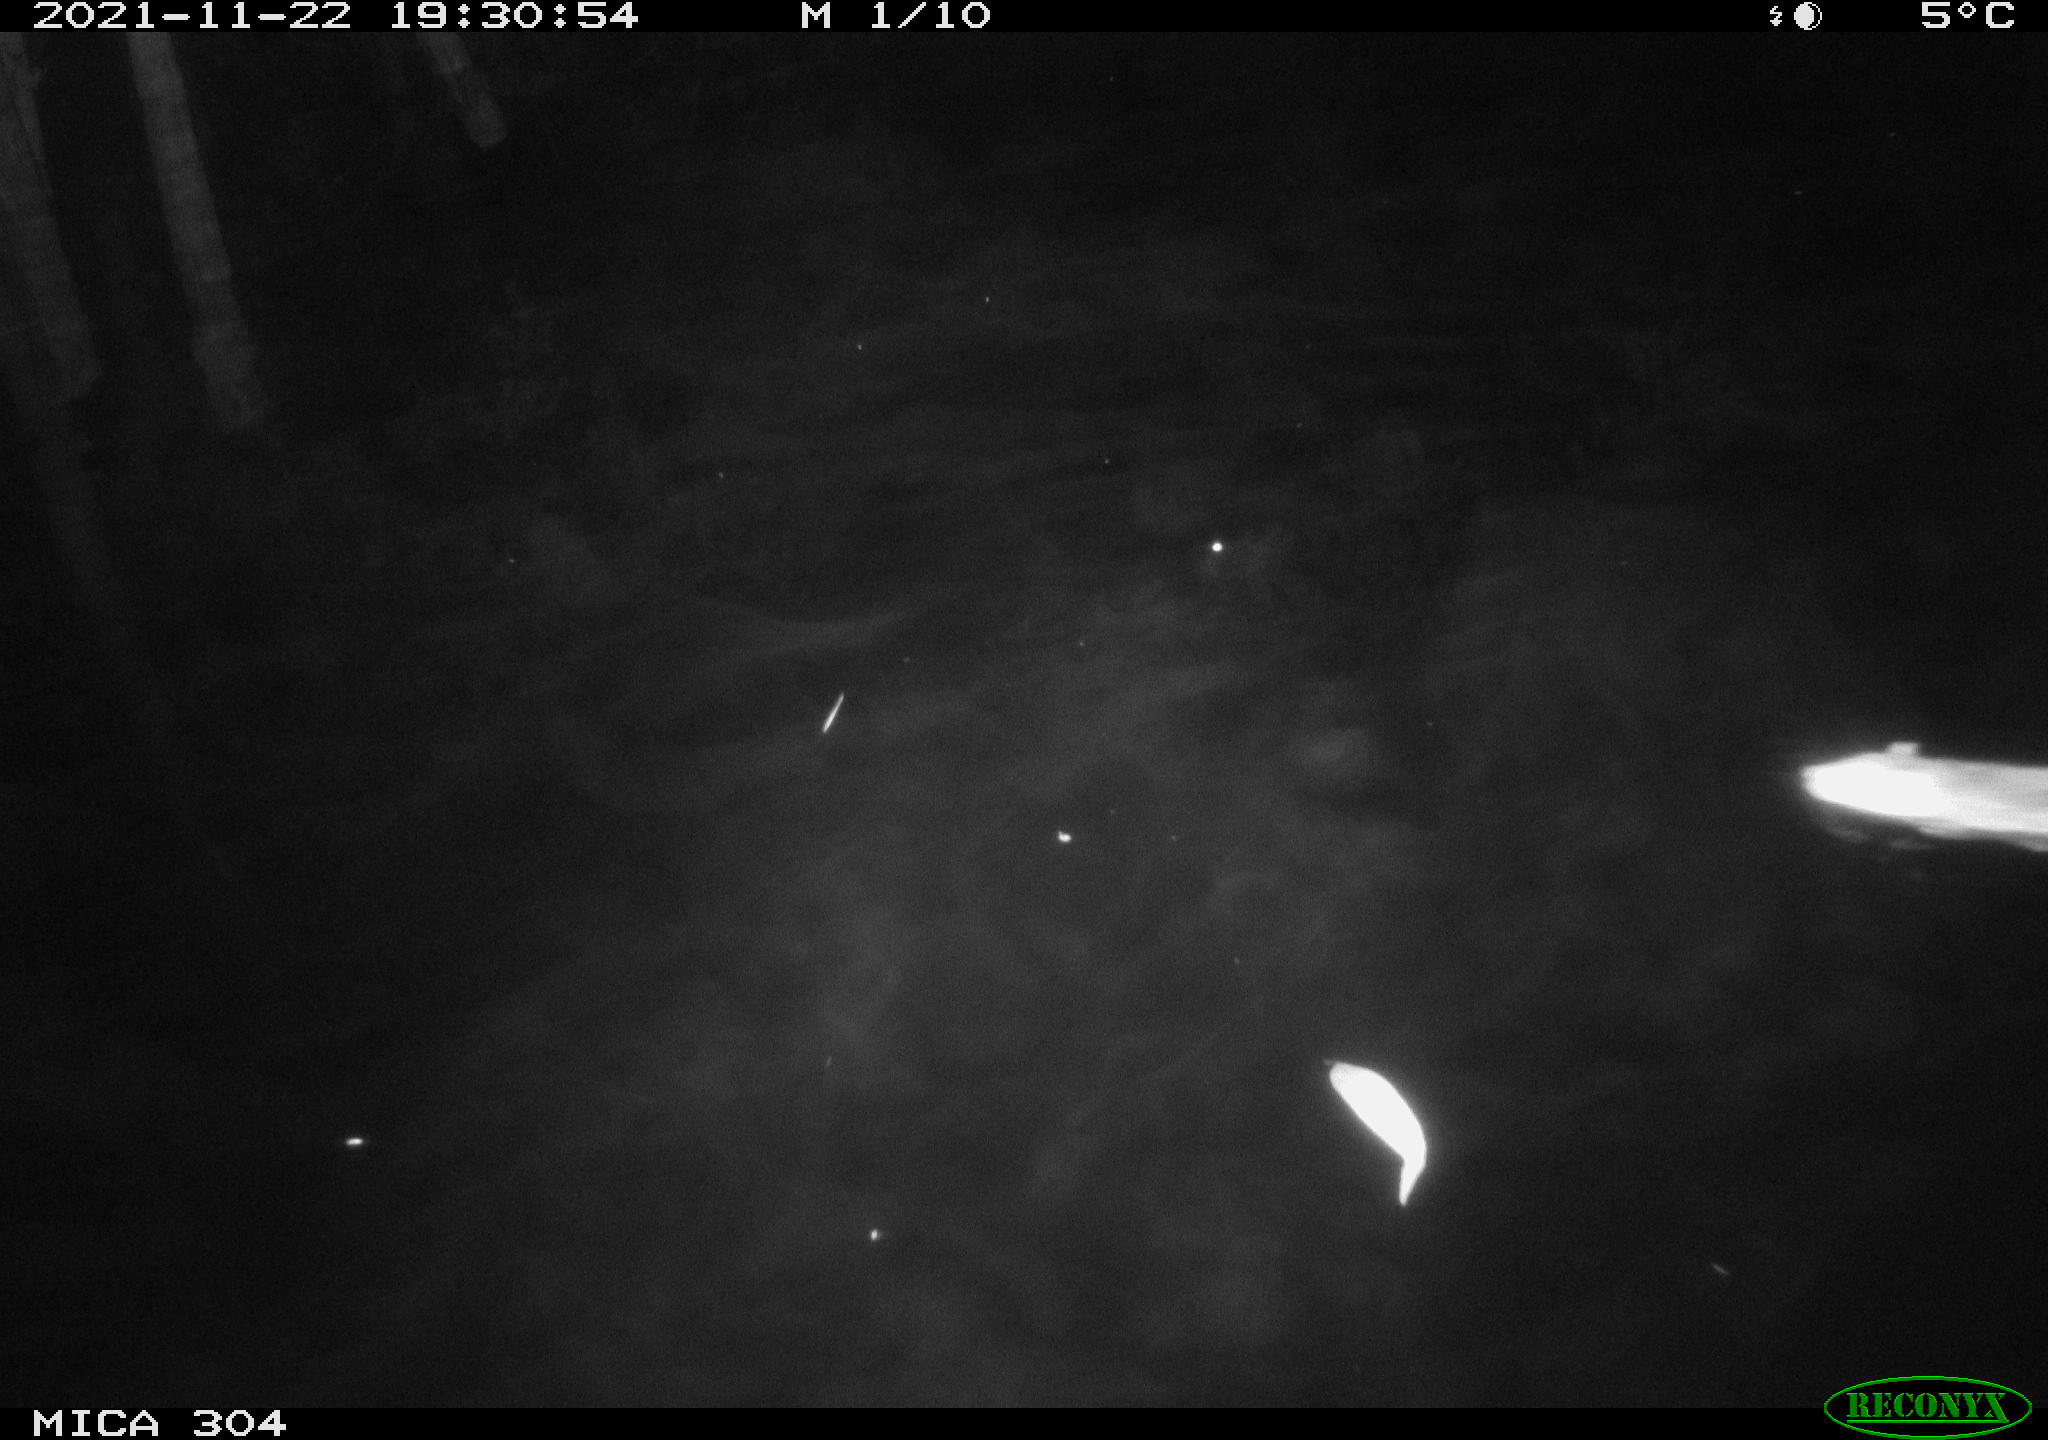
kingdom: Animalia
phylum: Chordata
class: Mammalia
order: Rodentia
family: Muridae
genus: Rattus
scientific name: Rattus norvegicus
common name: Brown rat
